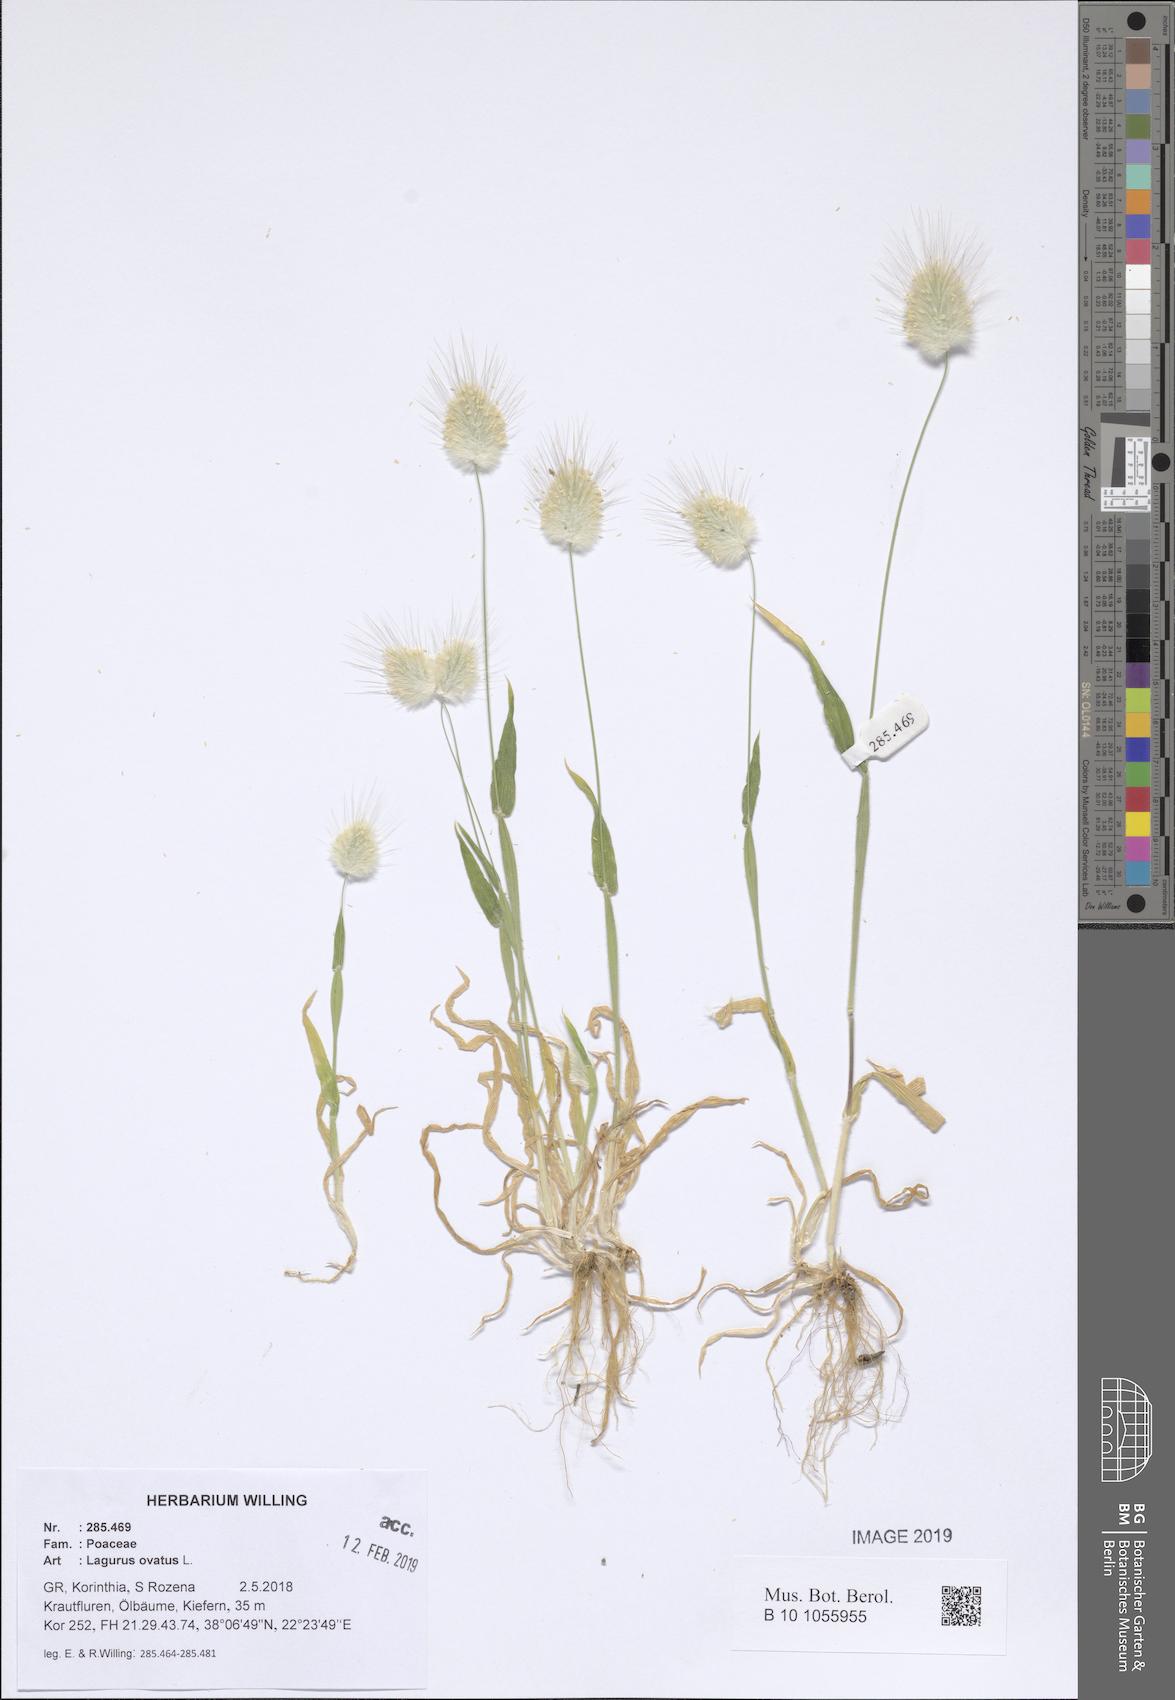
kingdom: Plantae
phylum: Tracheophyta
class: Liliopsida
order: Poales
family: Poaceae
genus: Lagurus
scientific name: Lagurus ovatus
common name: Hare's-tail
